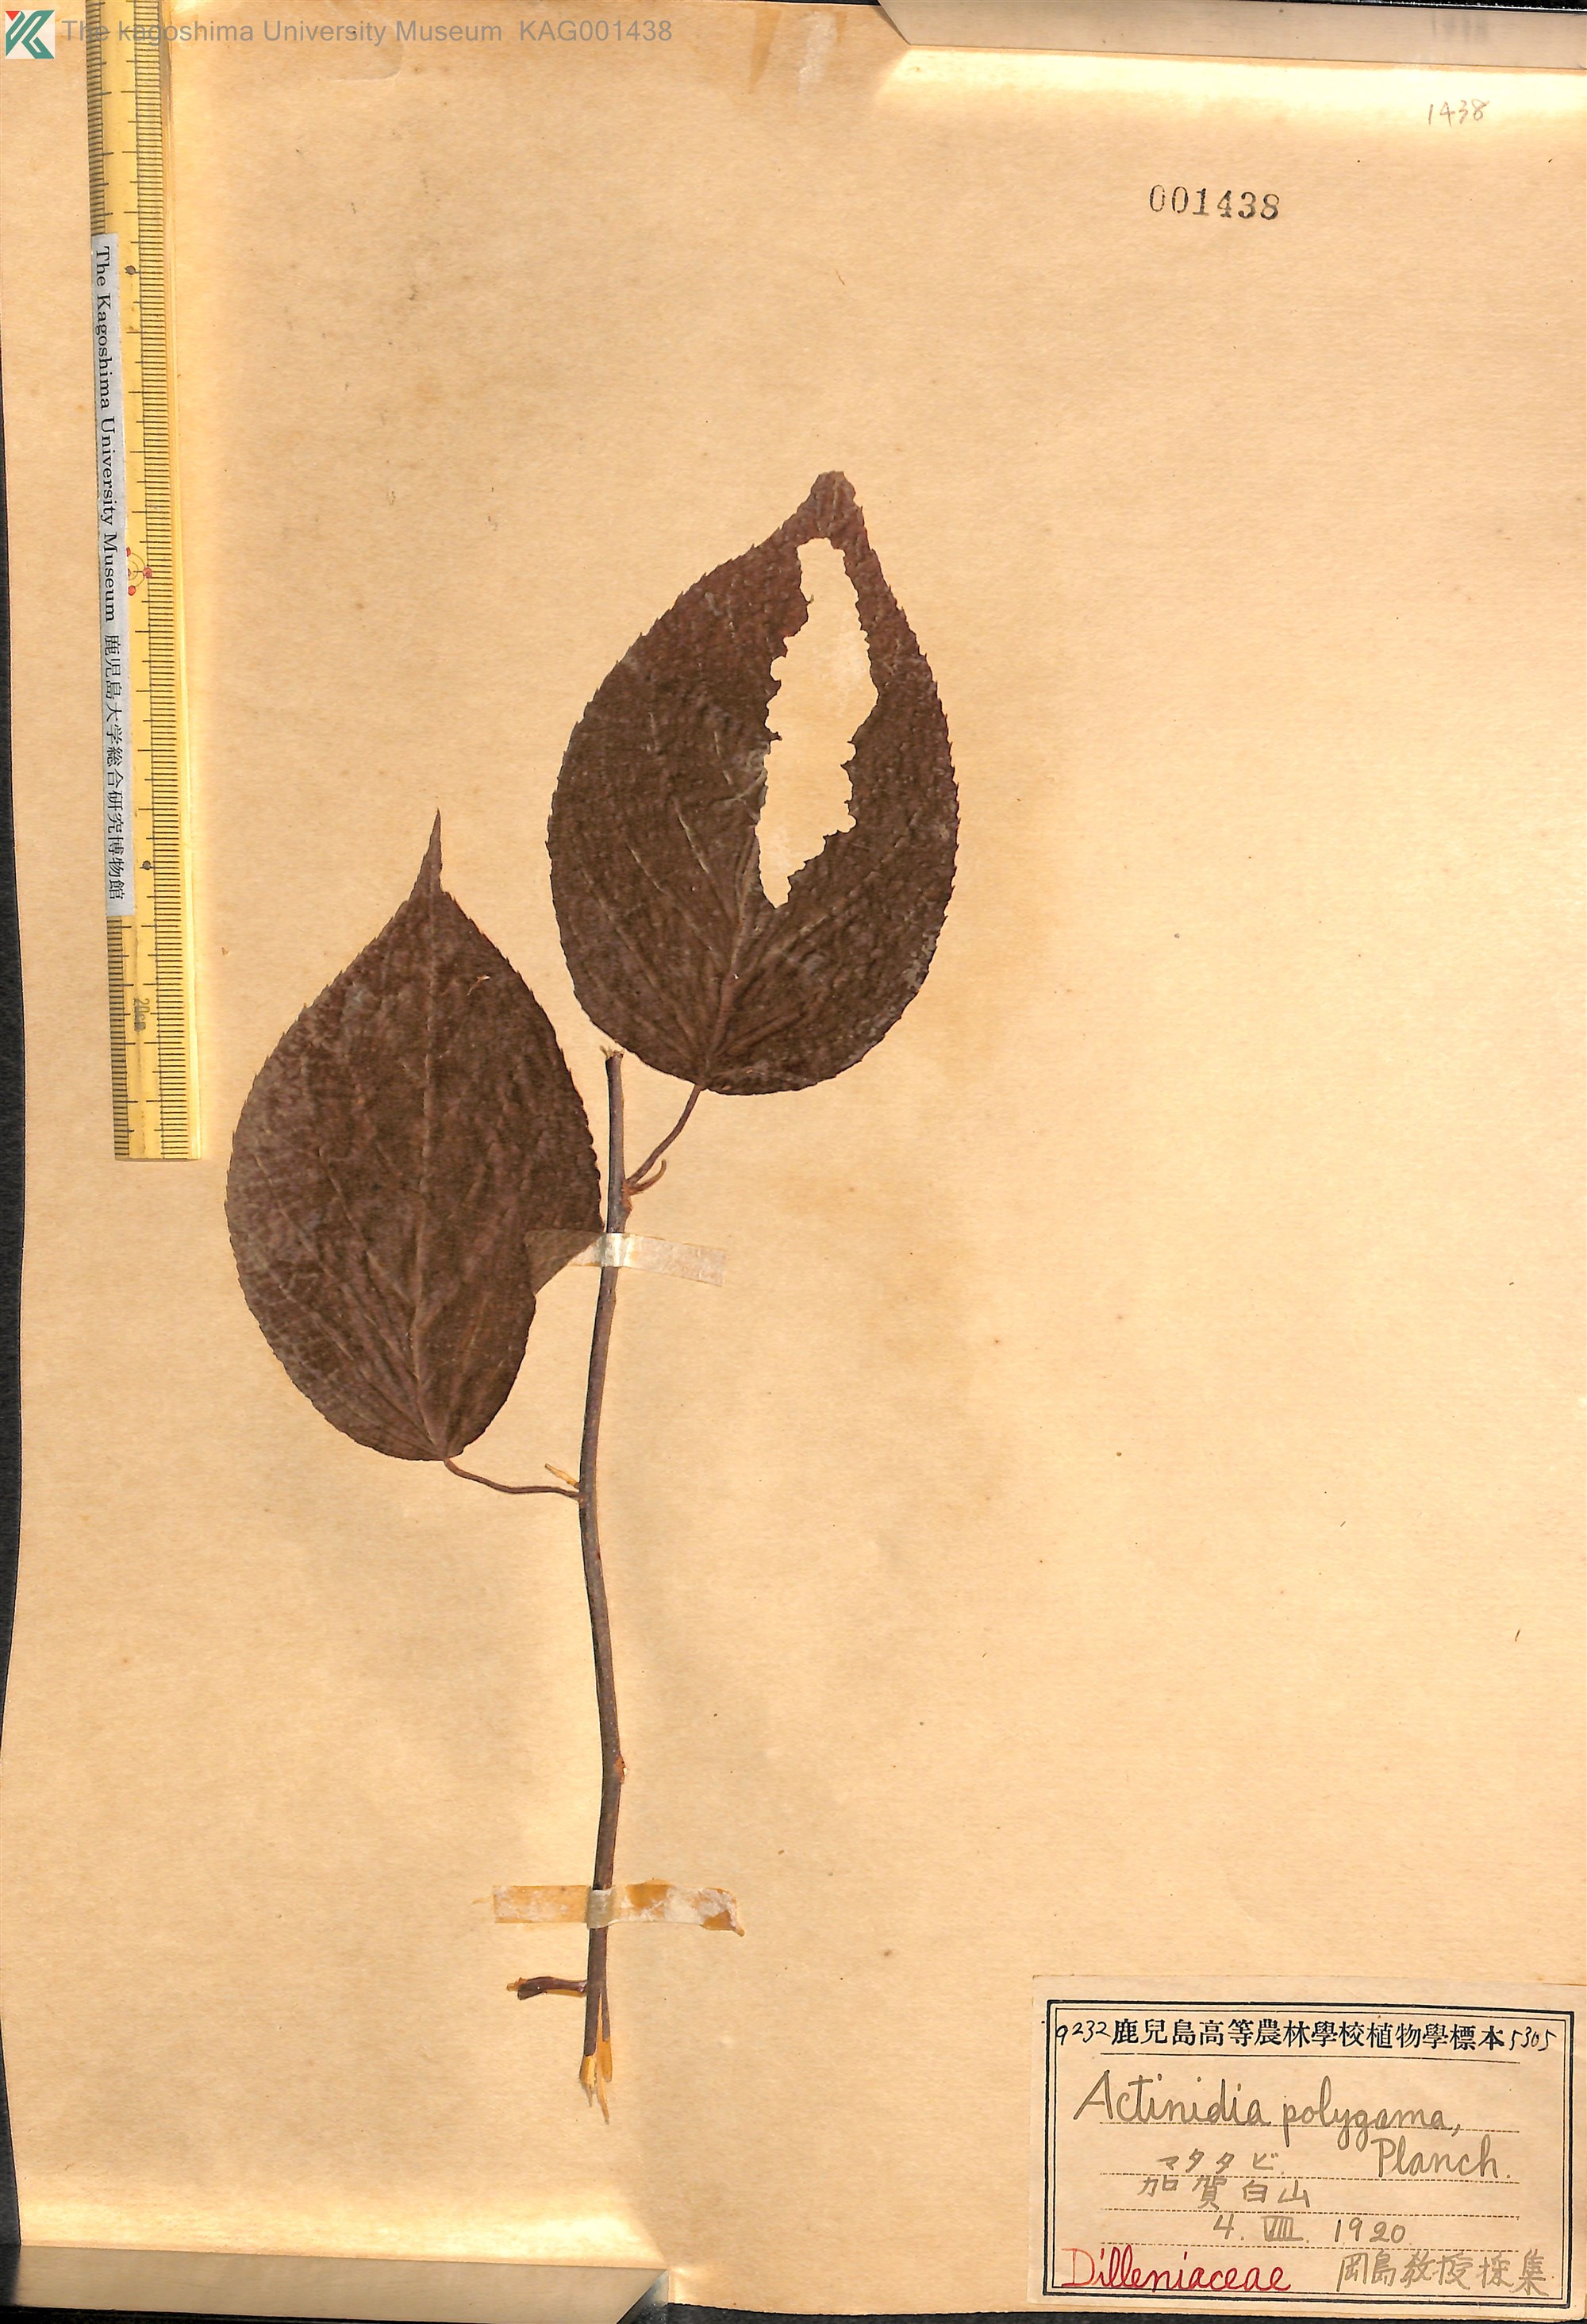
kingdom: Plantae
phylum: Tracheophyta
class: Magnoliopsida
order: Ericales
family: Actinidiaceae
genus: Actinidia
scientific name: Actinidia polygama
